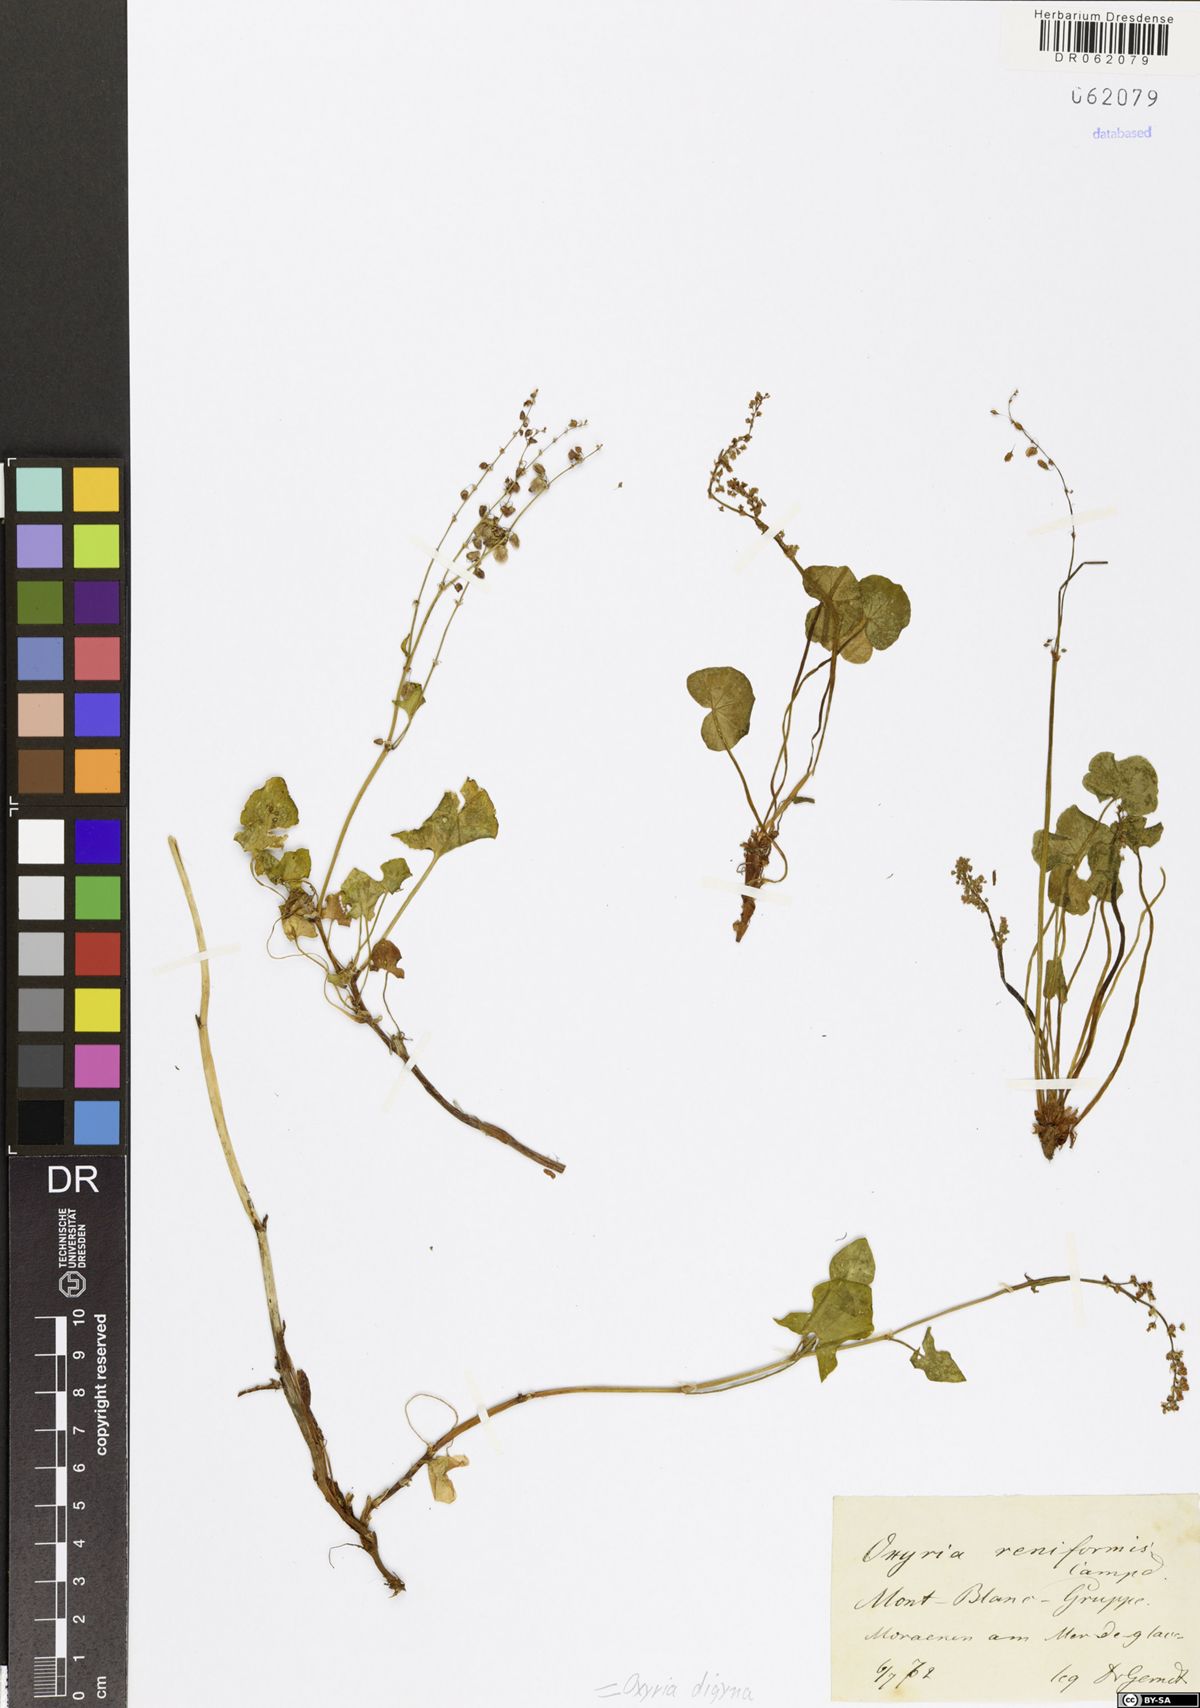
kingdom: Plantae
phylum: Tracheophyta
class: Magnoliopsida
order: Caryophyllales
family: Polygonaceae
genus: Oxyria
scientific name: Oxyria digyna
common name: Alpine mountain-sorrel
